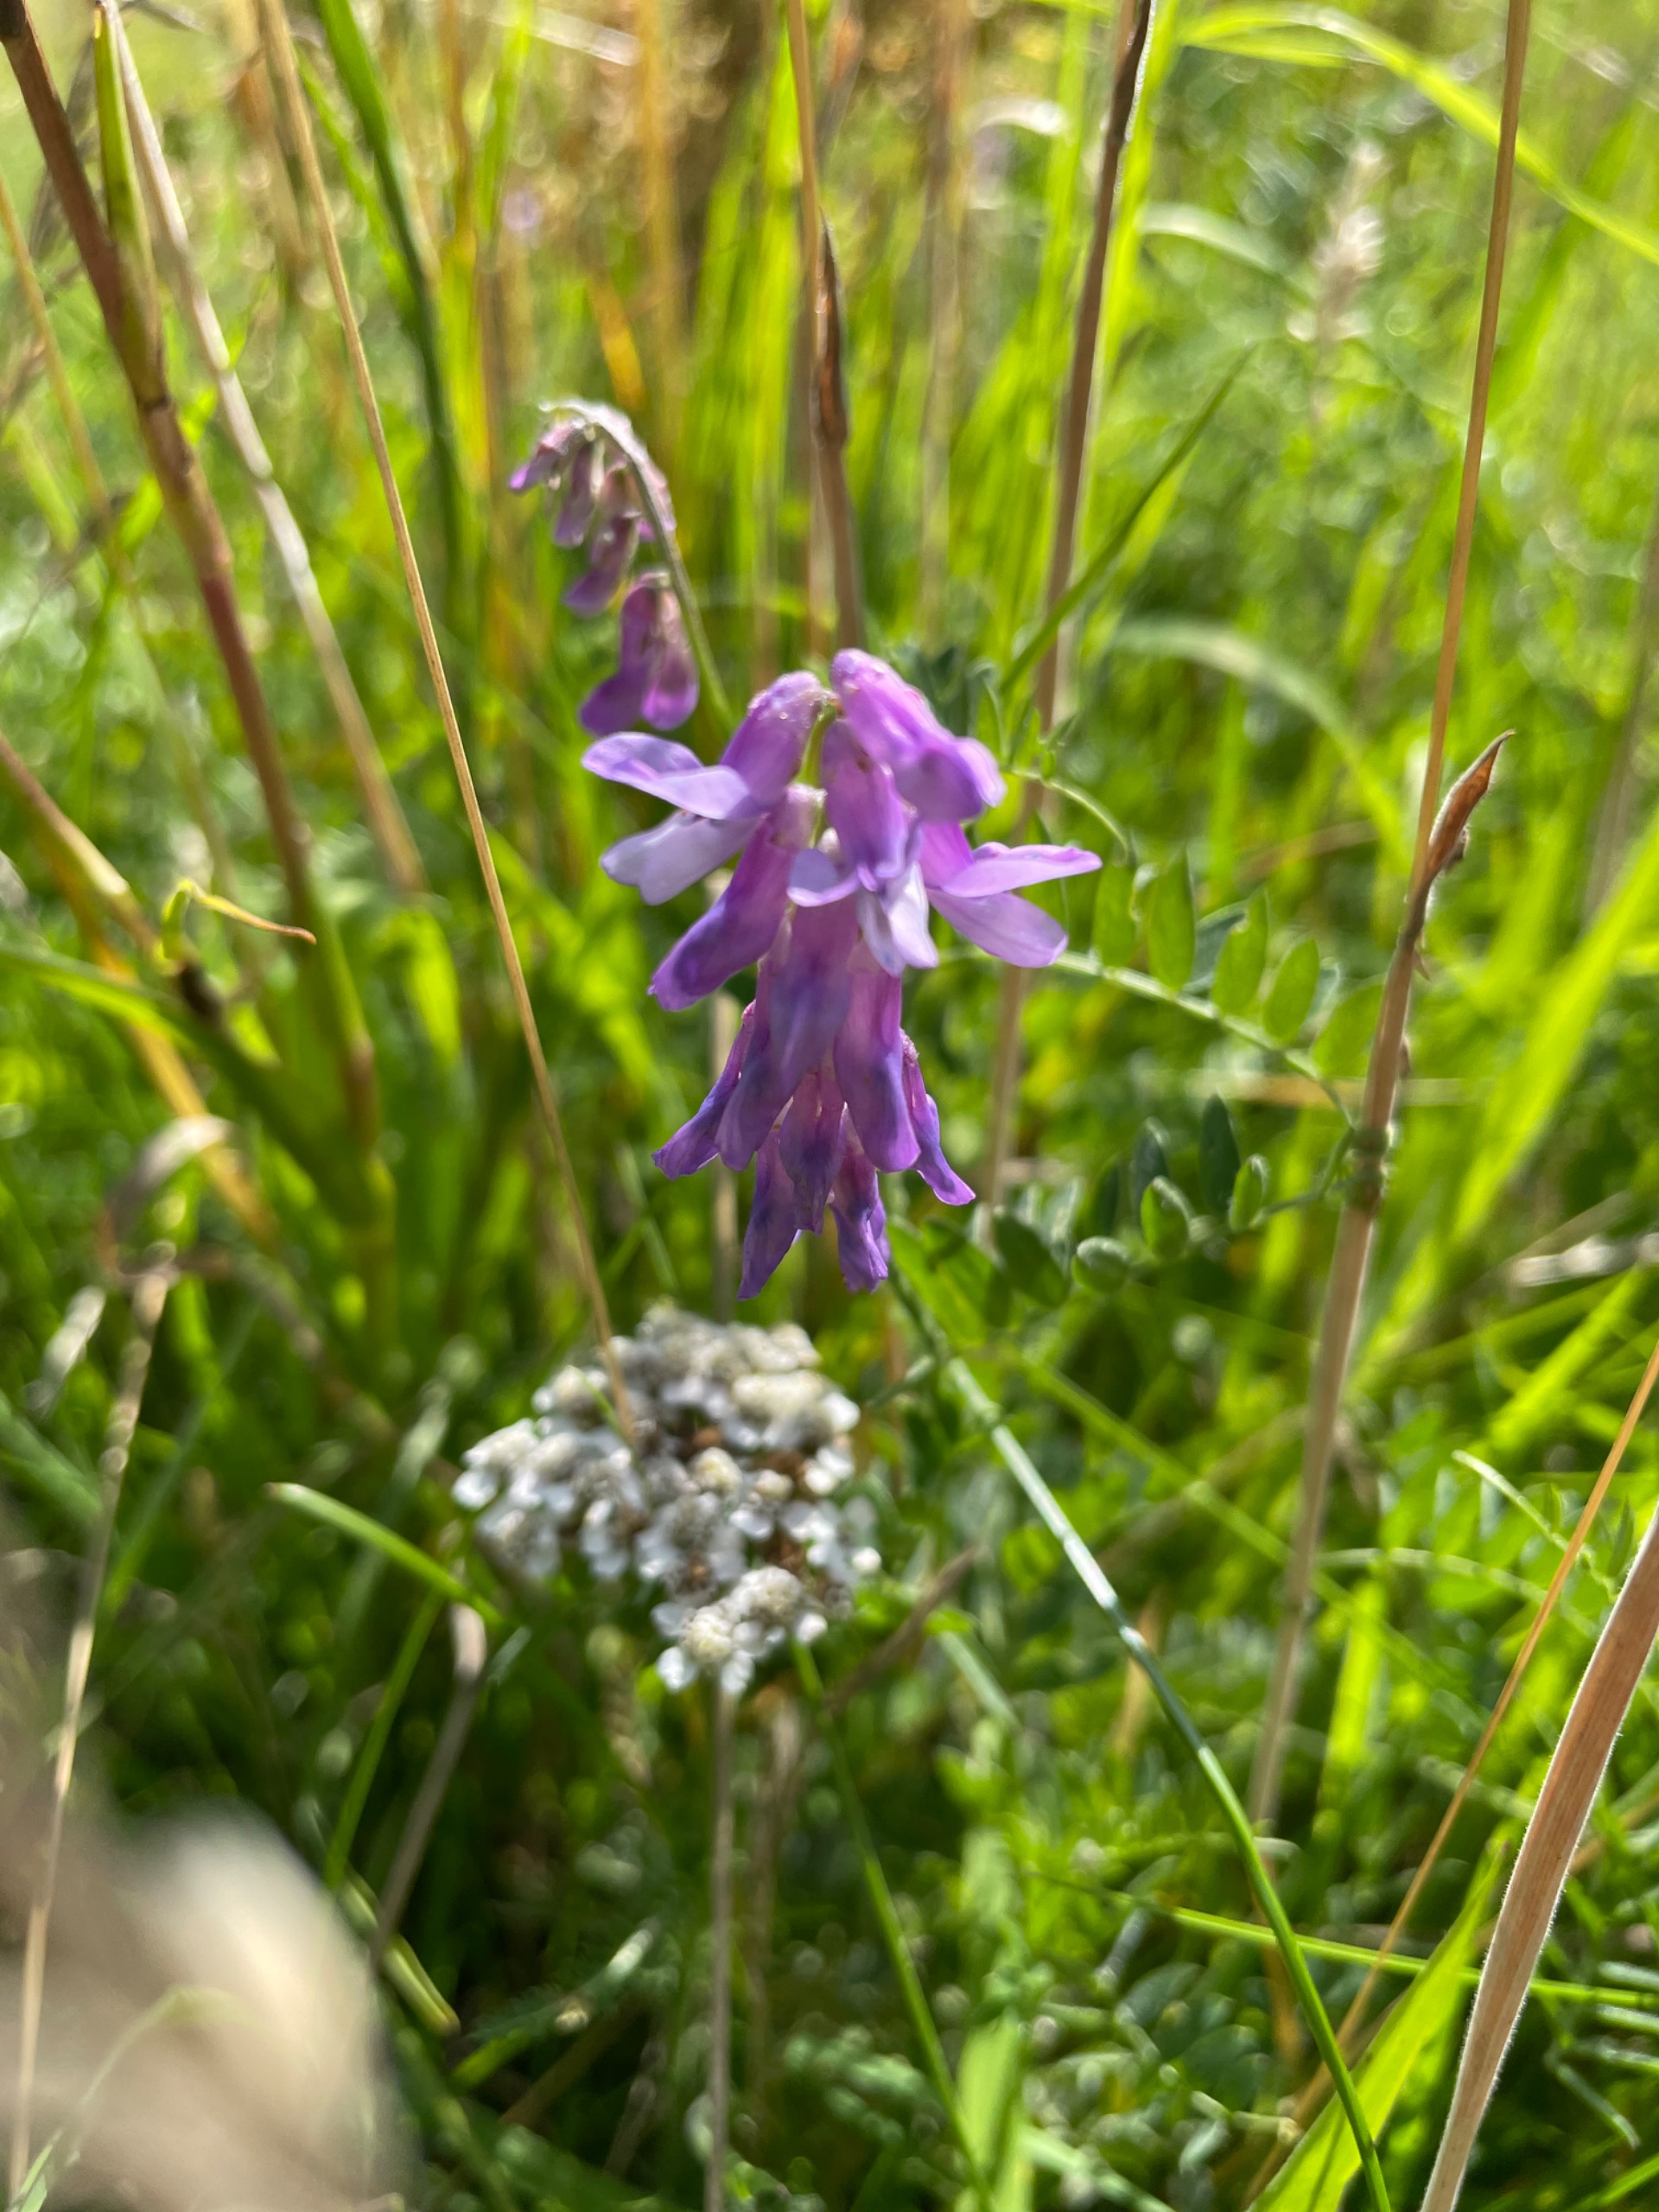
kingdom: Plantae
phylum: Tracheophyta
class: Magnoliopsida
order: Fabales
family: Fabaceae
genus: Vicia
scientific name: Vicia cracca
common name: Muse-vikke
